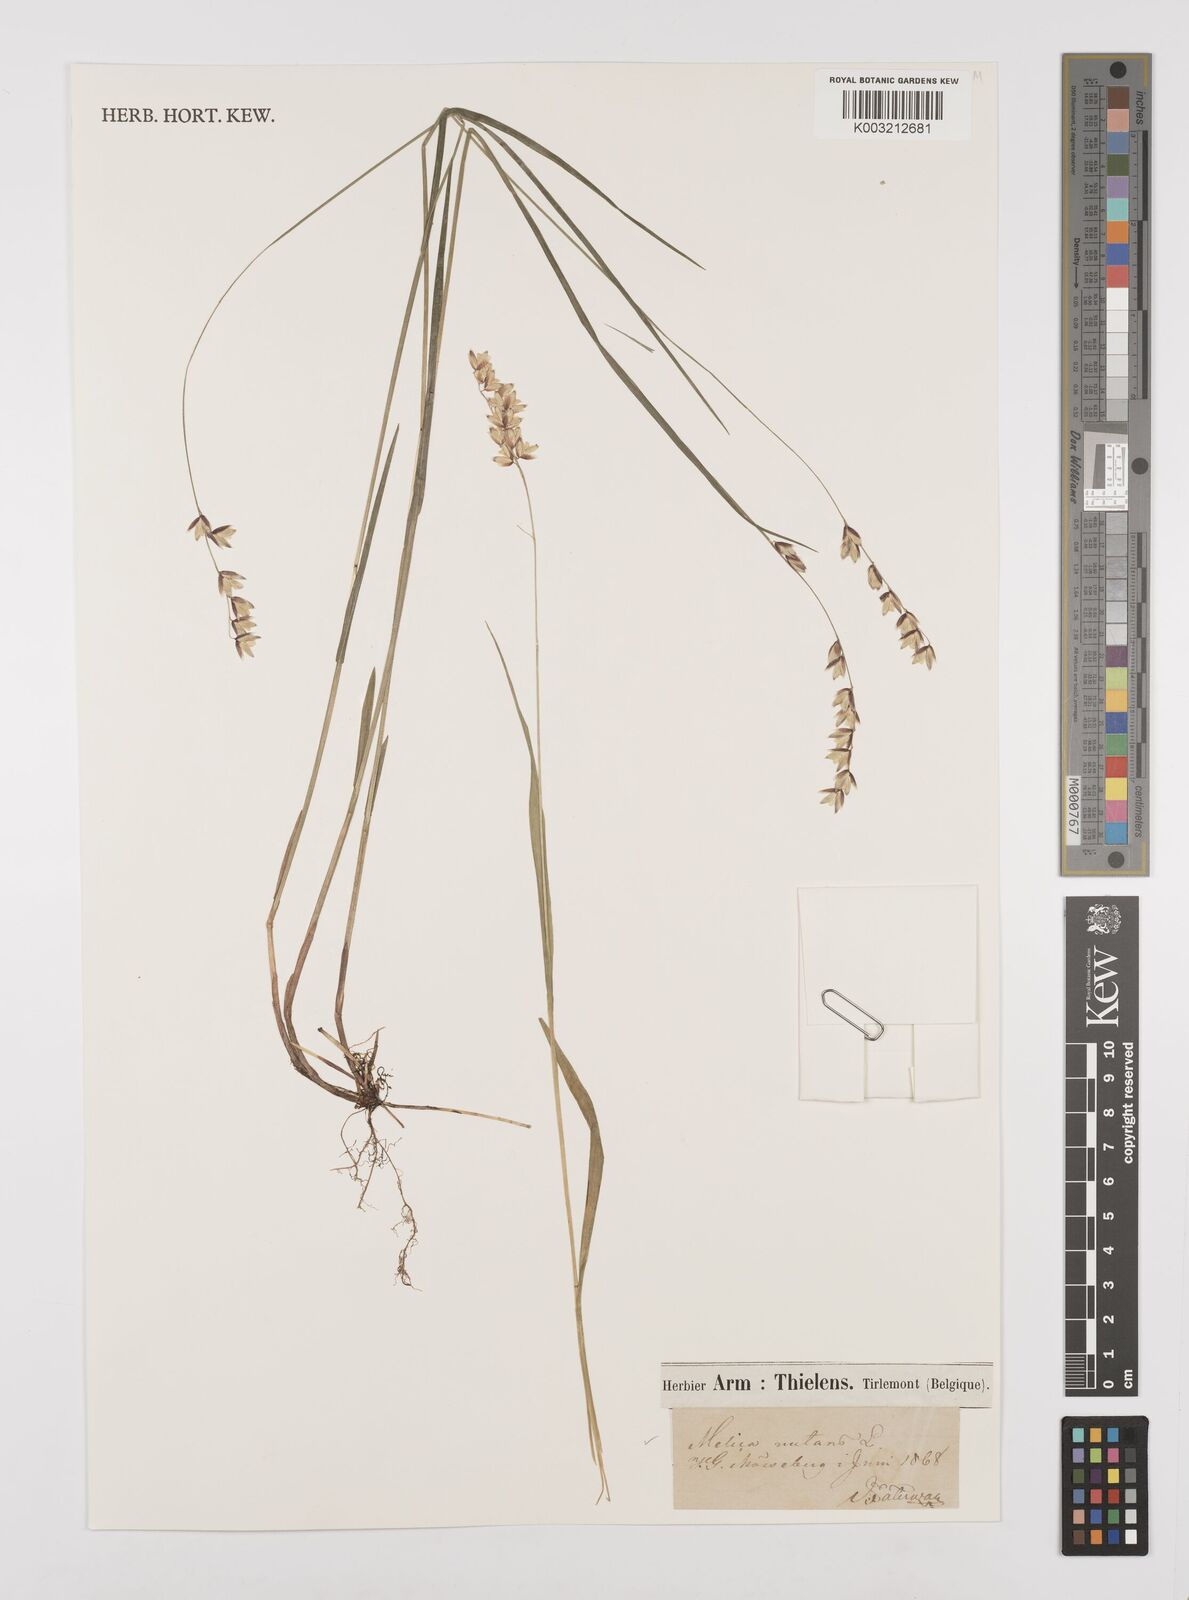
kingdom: Plantae
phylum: Tracheophyta
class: Liliopsida
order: Poales
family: Poaceae
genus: Melica
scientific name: Melica nutans
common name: Mountain melick
